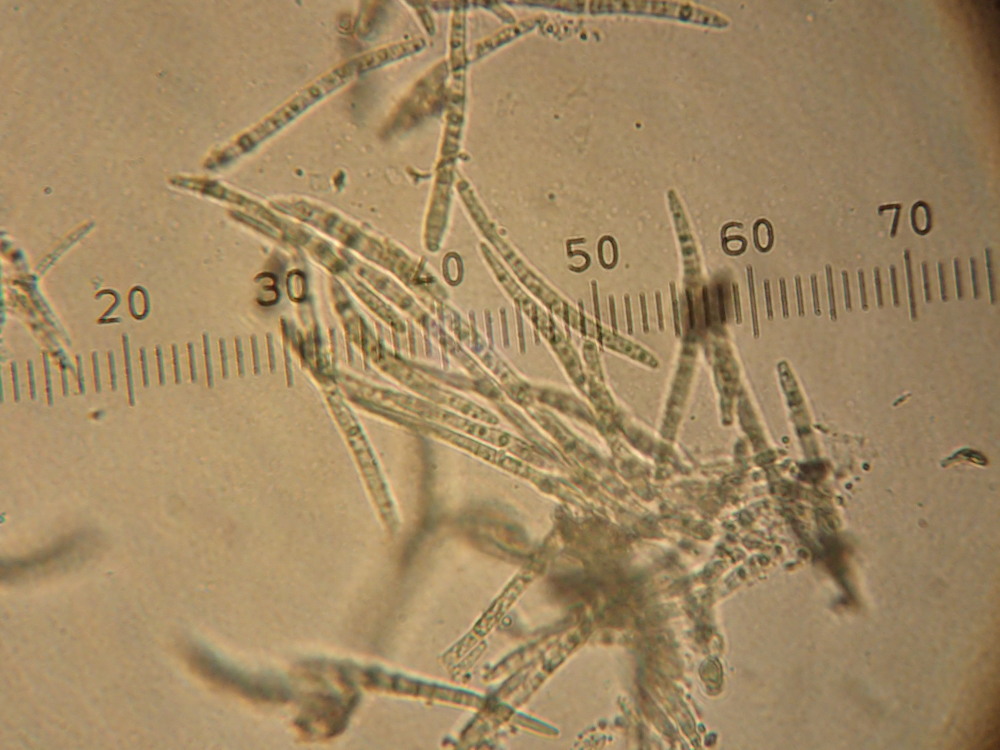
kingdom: Fungi
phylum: Ascomycota
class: Dothideomycetes
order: Mycosphaerellales
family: Mycosphaerellaceae
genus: Mycosphaerella
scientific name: Mycosphaerella podagrariae
